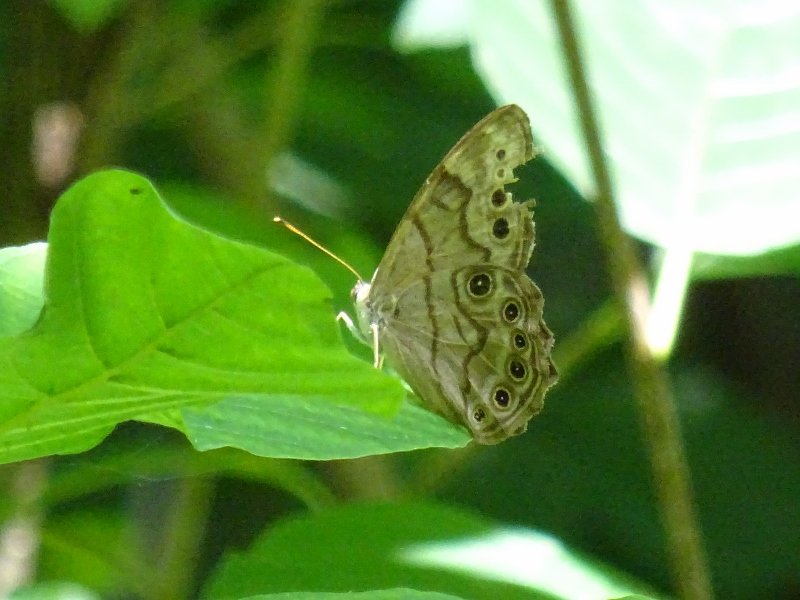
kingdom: Animalia
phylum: Arthropoda
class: Insecta
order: Lepidoptera
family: Nymphalidae
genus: Lethe
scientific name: Lethe anthedon
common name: Northern Pearly-Eye
